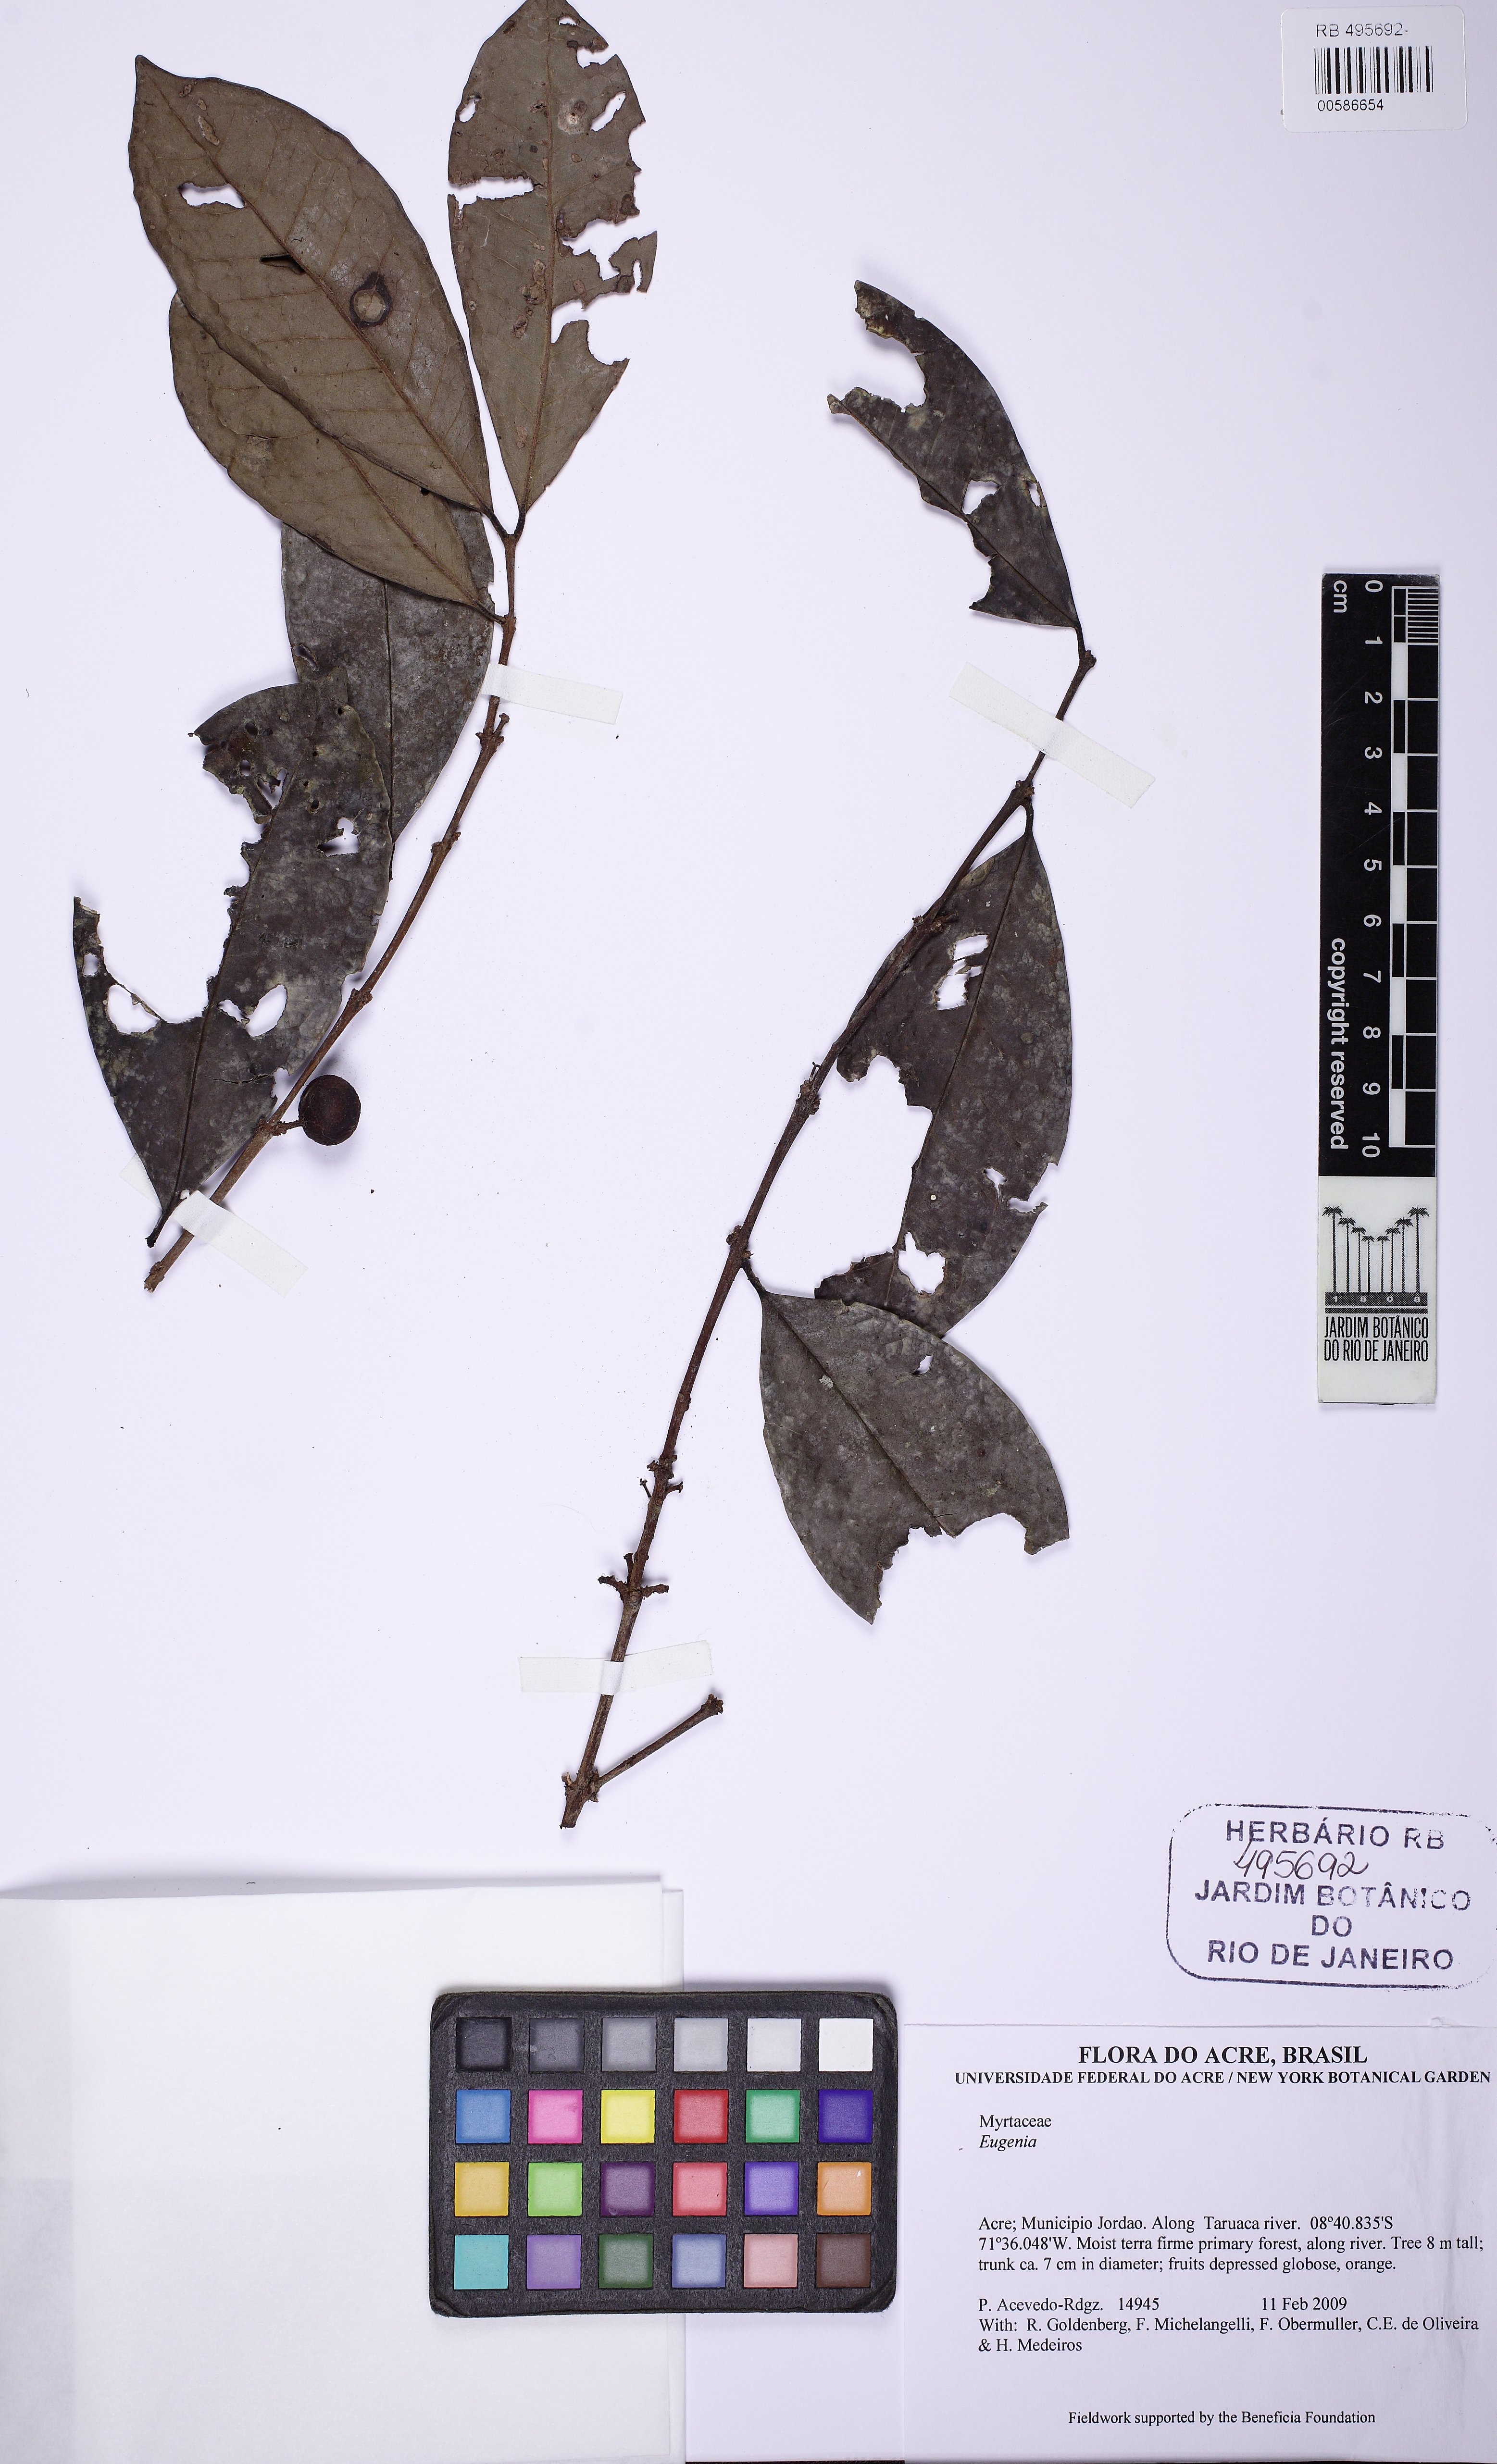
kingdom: Plantae
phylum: Tracheophyta
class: Magnoliopsida
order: Myrtales
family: Myrtaceae
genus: Eugenia
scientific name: Eugenia
